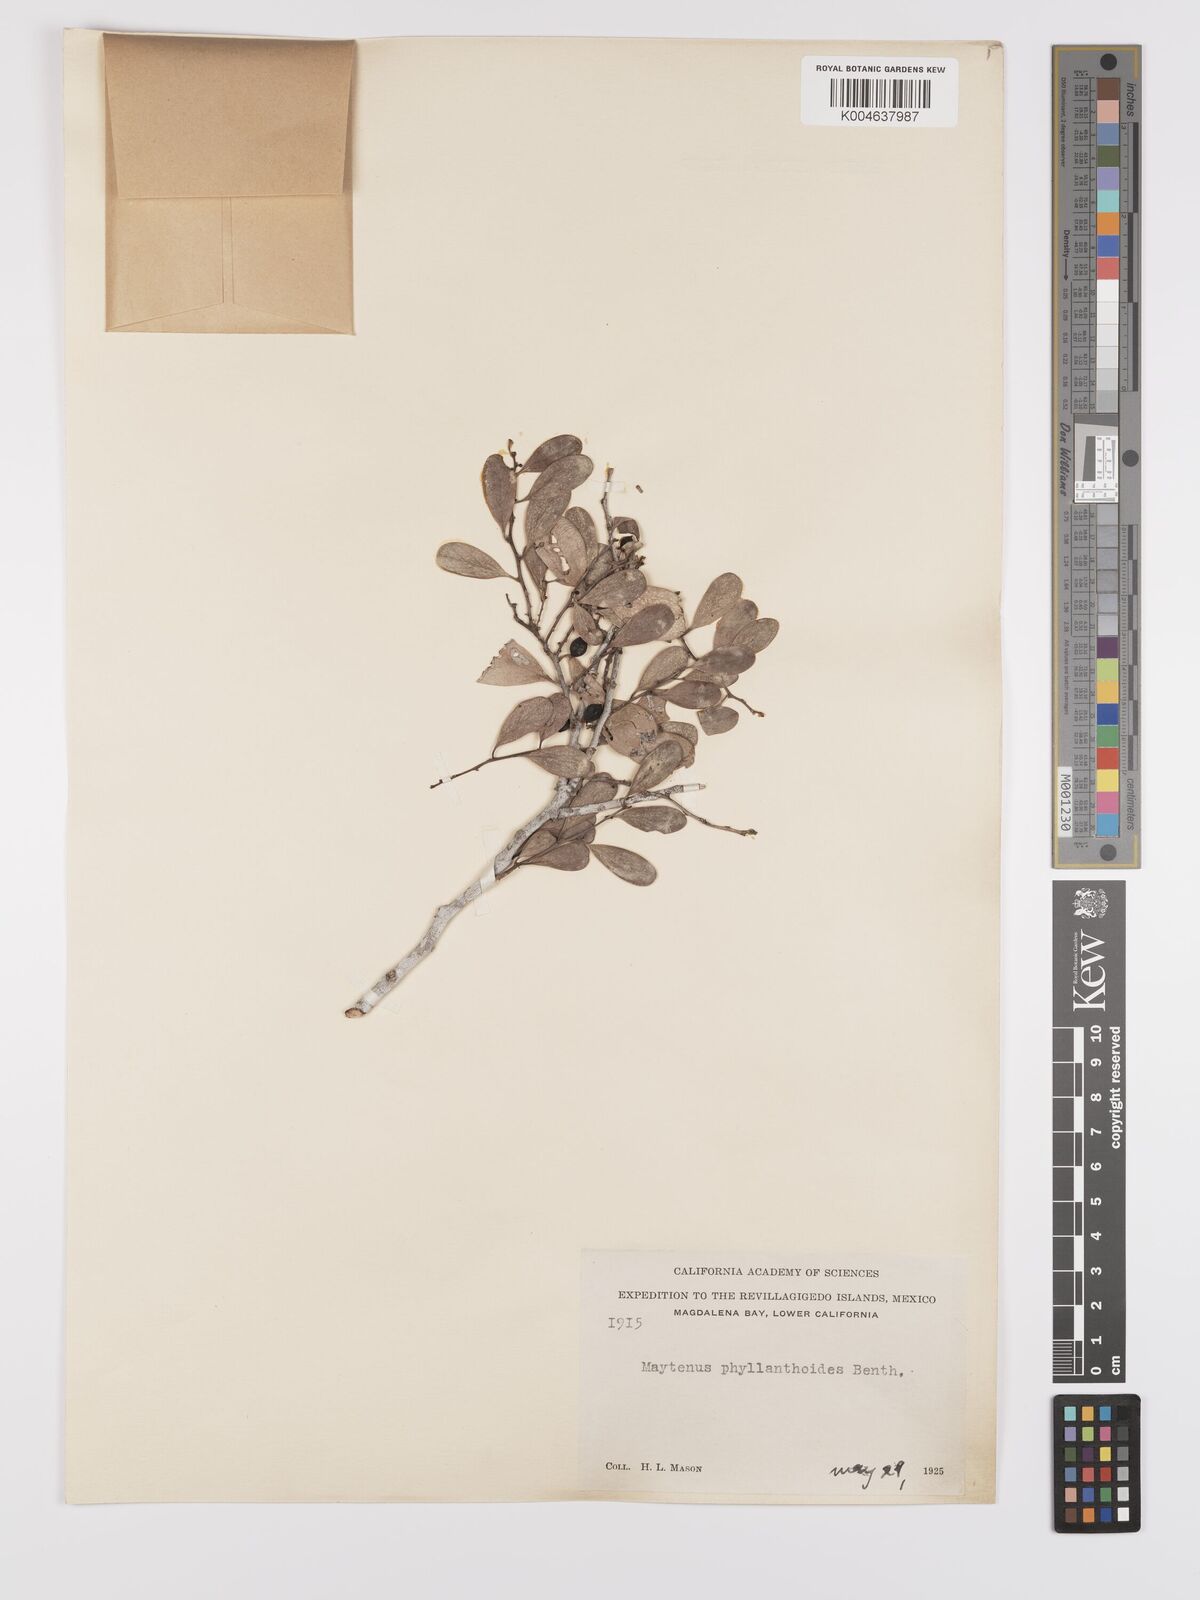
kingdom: Plantae
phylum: Tracheophyta
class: Magnoliopsida
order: Celastrales
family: Celastraceae
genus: Tricerma
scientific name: Tricerma phyllanthoides
